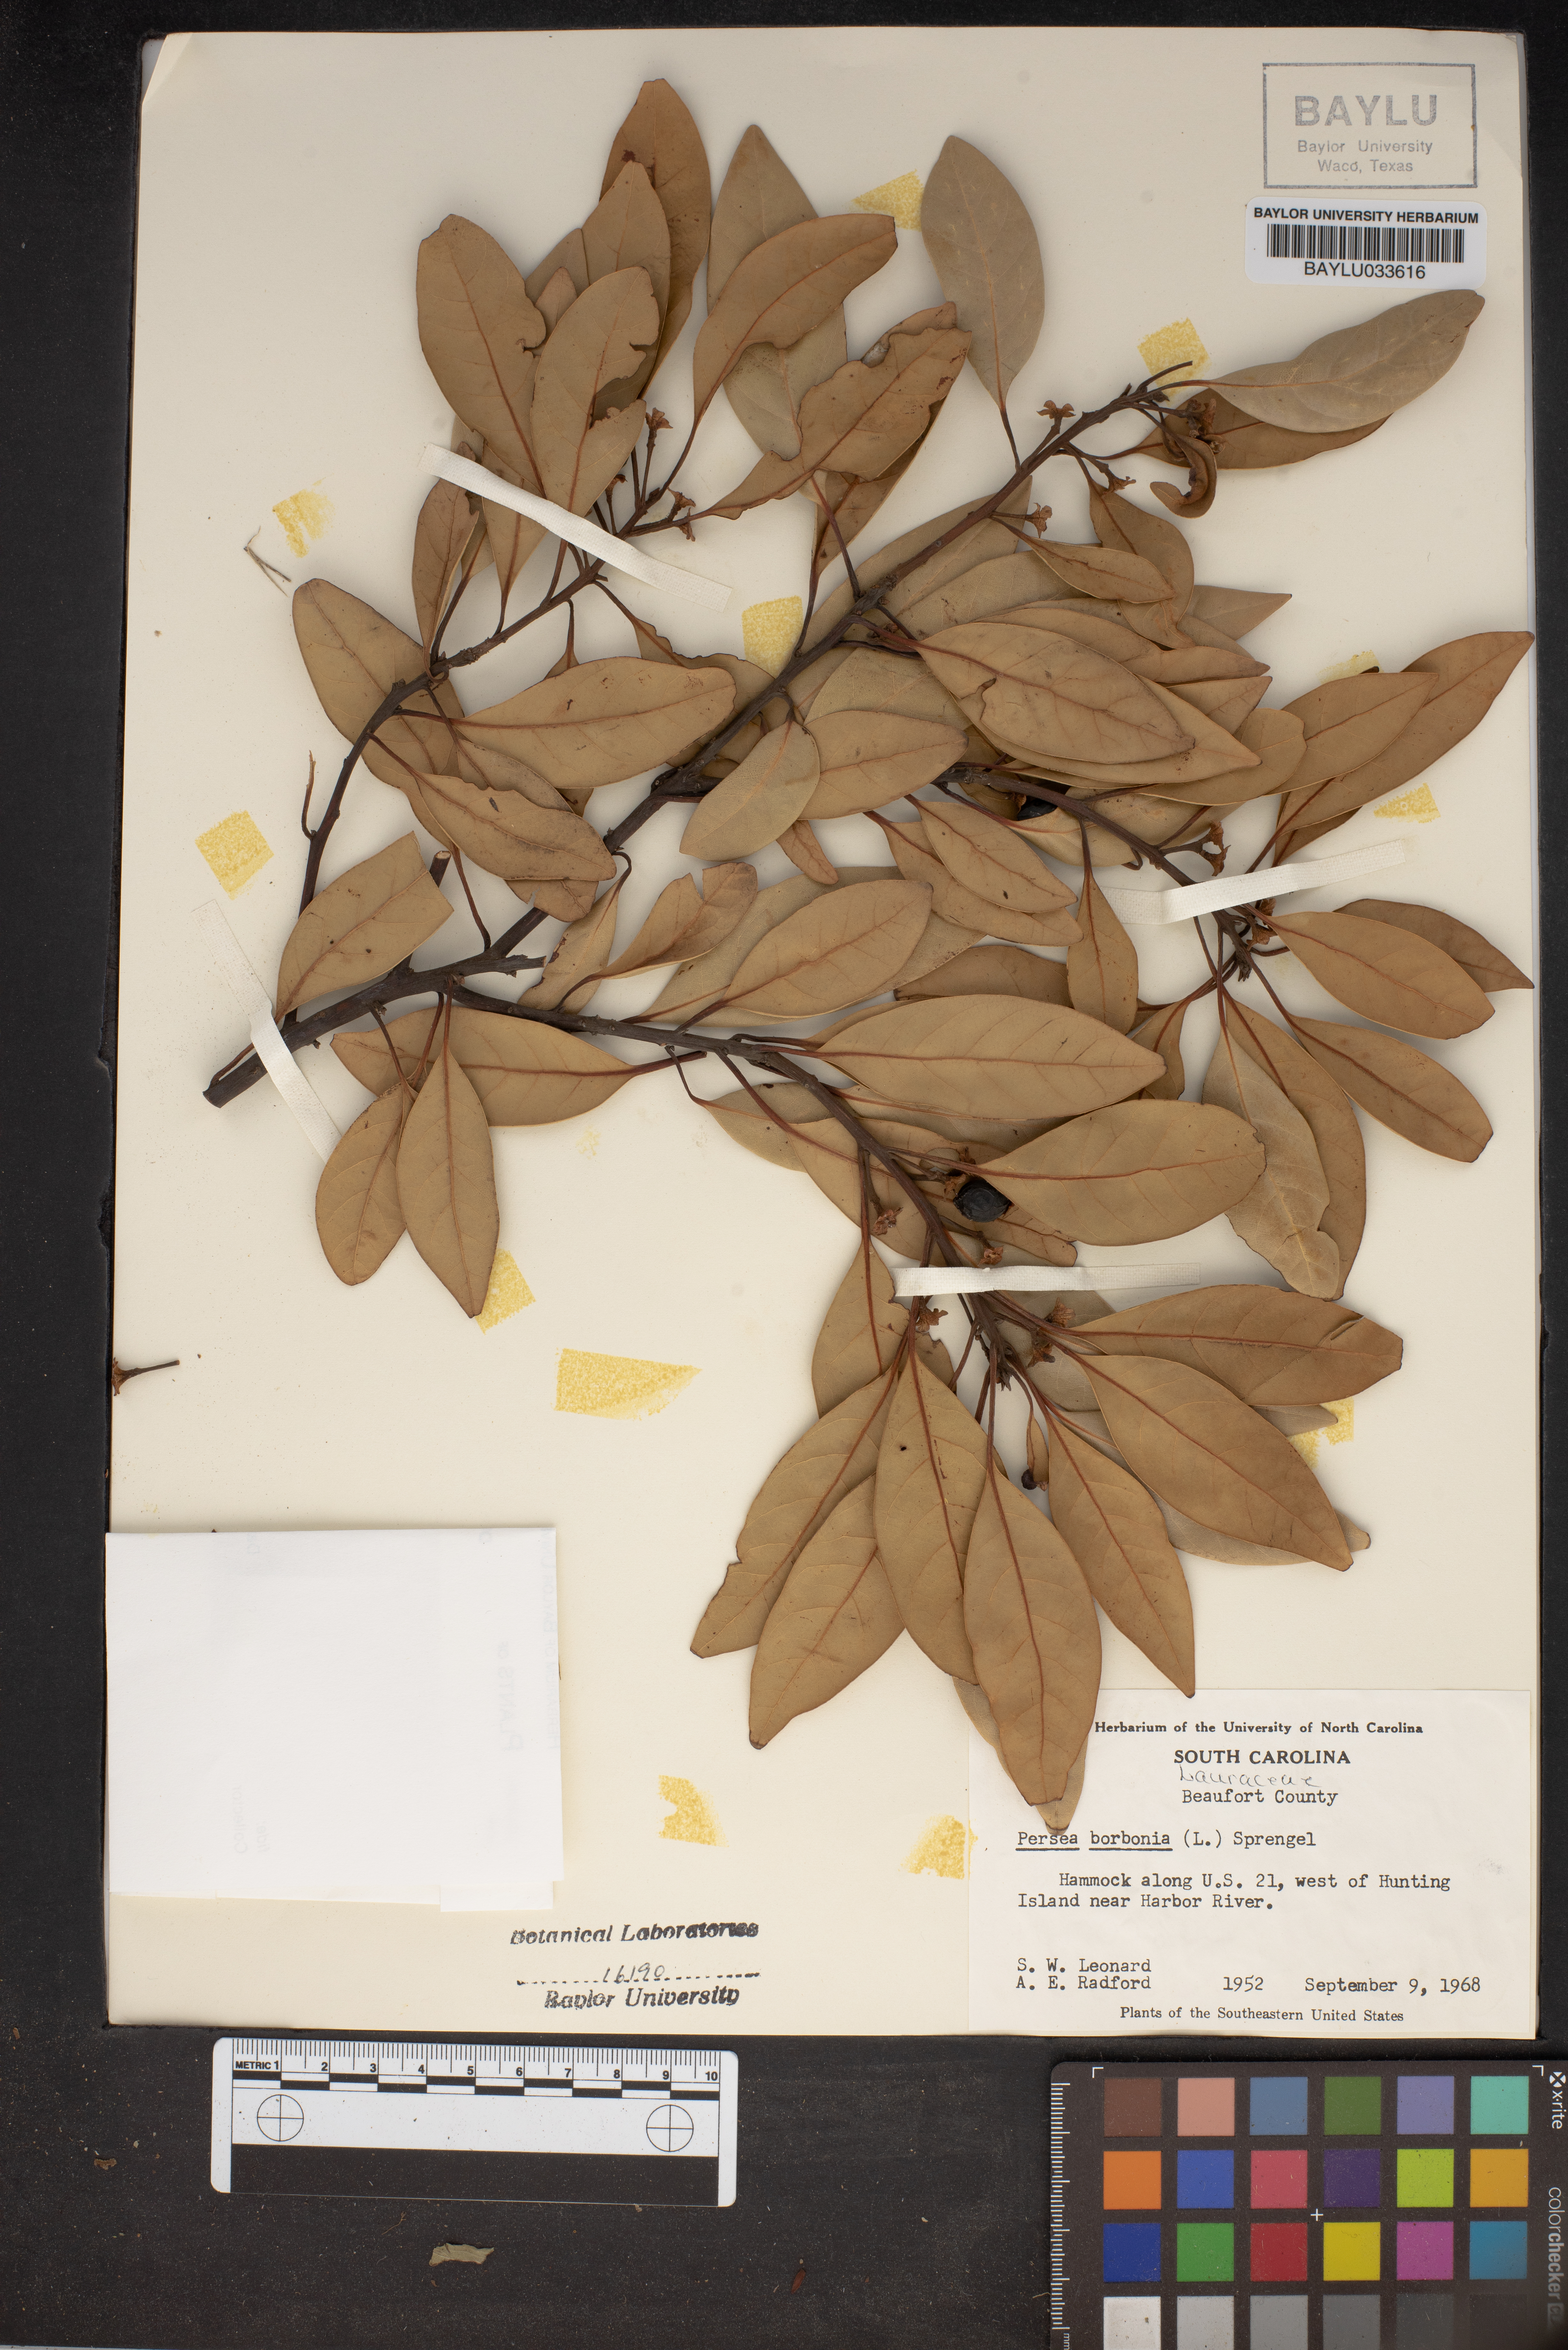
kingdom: Plantae
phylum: Tracheophyta
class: Magnoliopsida
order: Laurales
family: Lauraceae
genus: Persea
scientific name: Persea borbonia
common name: Redbay
